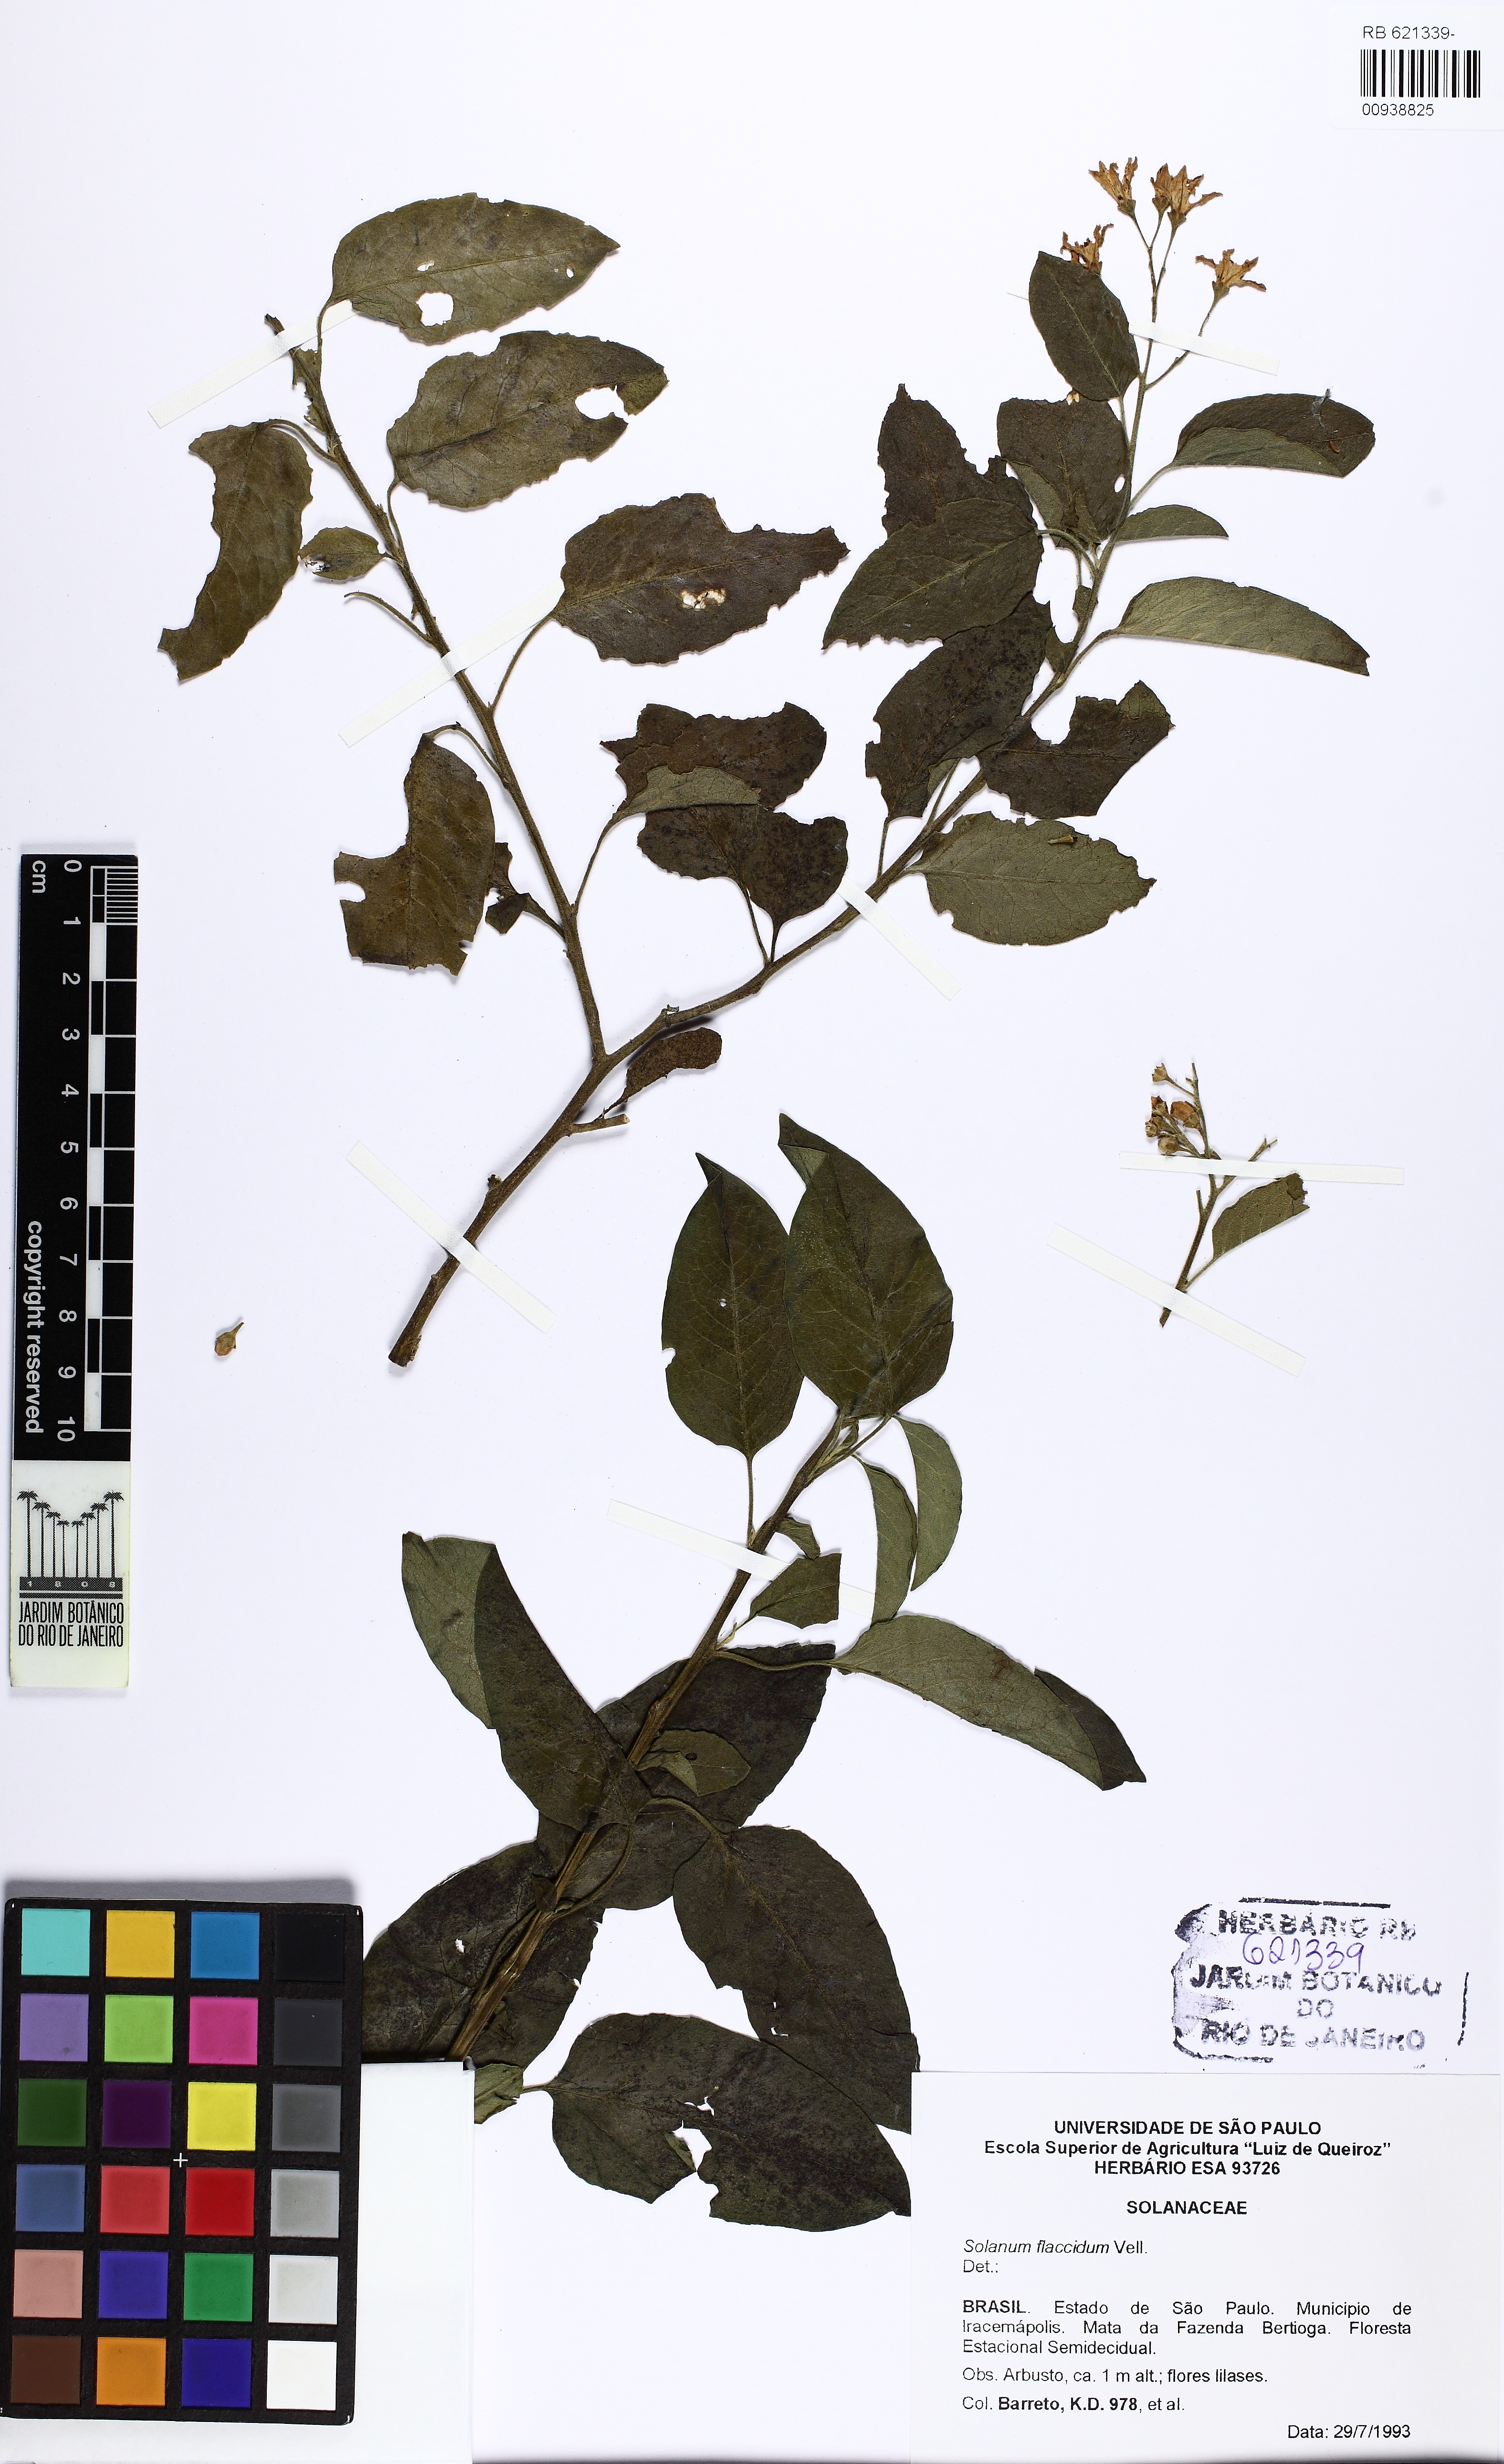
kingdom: Plantae
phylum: Tracheophyta
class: Magnoliopsida
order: Solanales
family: Solanaceae
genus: Solanum
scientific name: Solanum flaccidum
